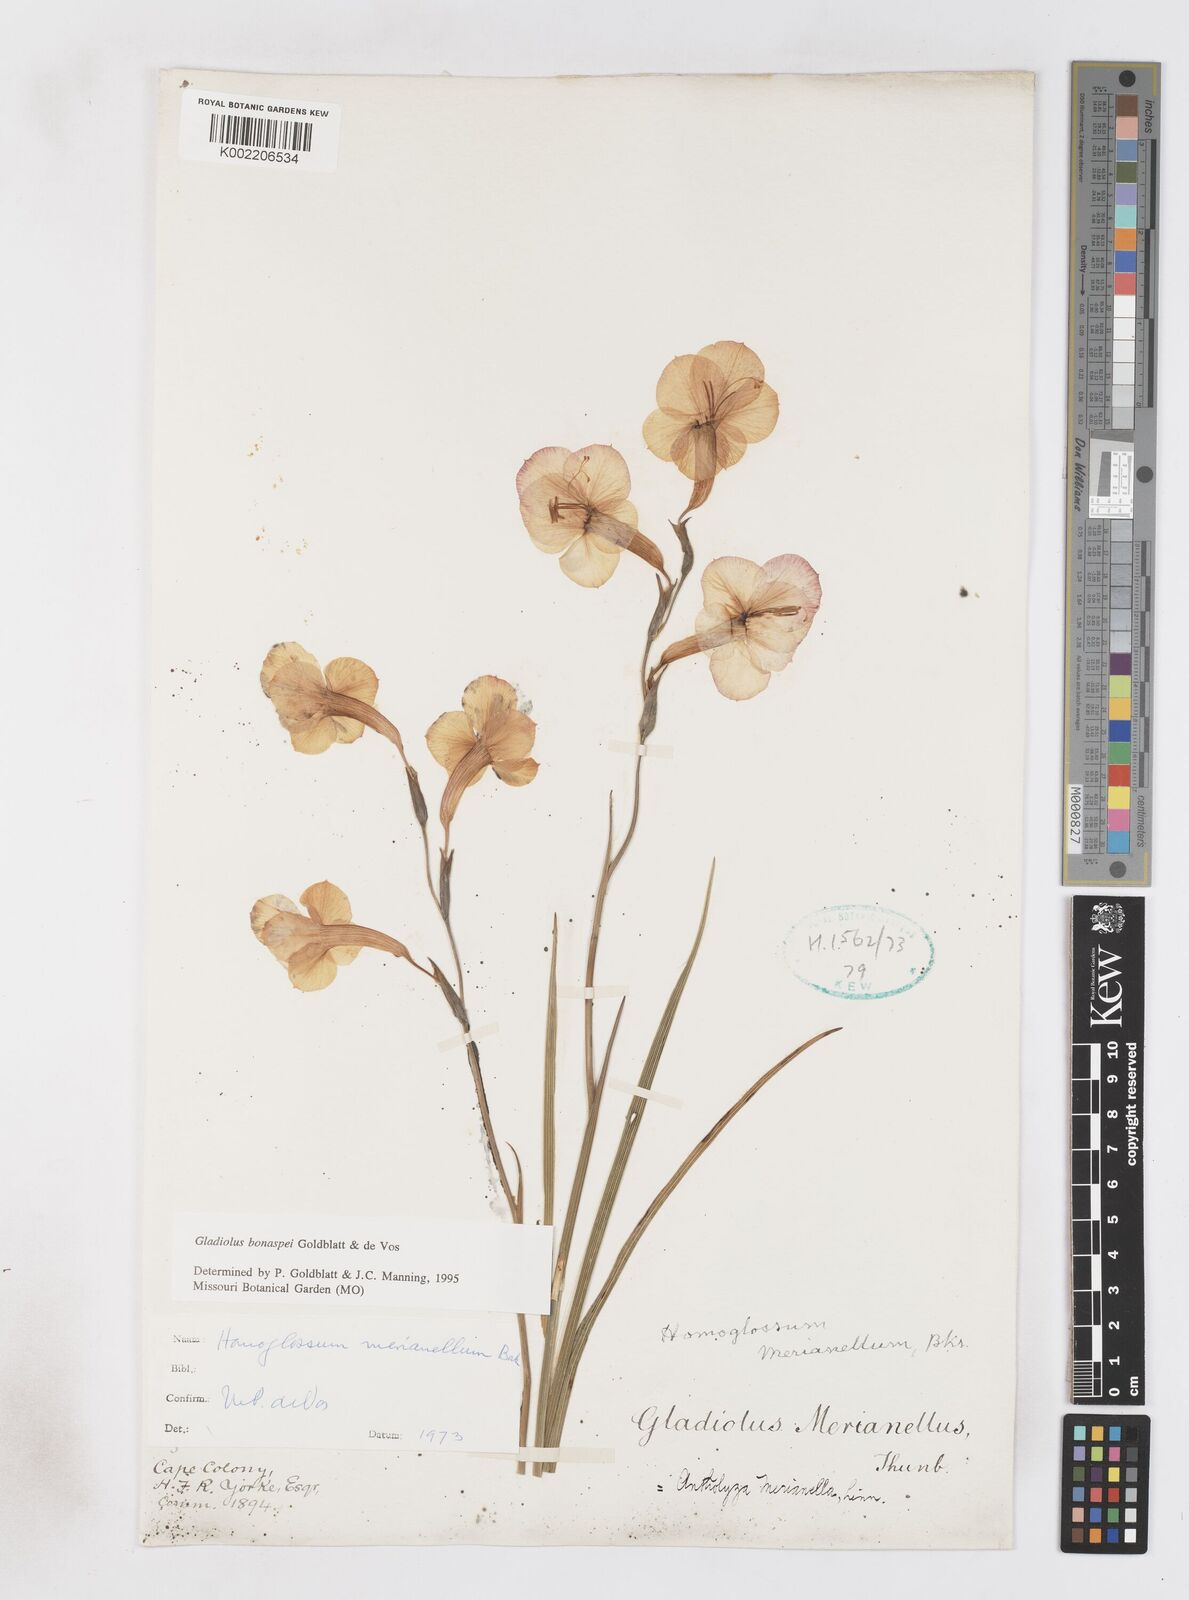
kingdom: Plantae
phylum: Tracheophyta
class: Liliopsida
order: Asparagales
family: Iridaceae
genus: Gladiolus
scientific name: Gladiolus merianellus
